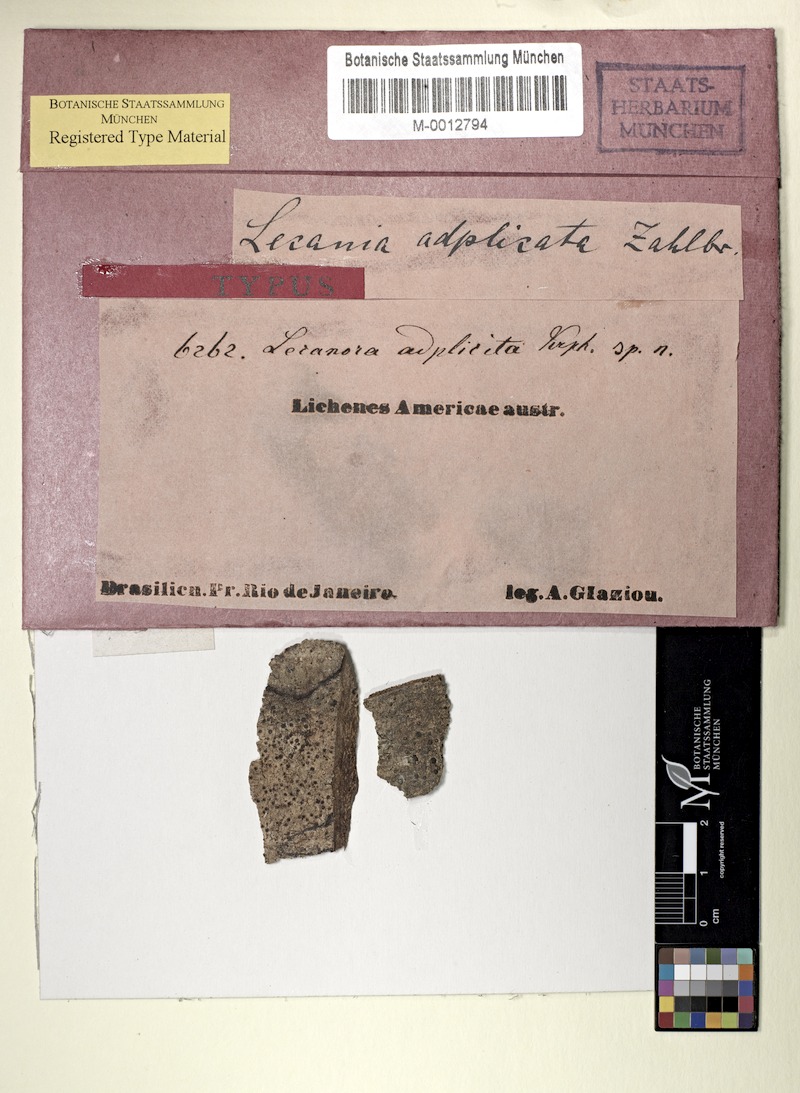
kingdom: Fungi
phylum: Ascomycota
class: Lecanoromycetes
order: Lecanorales
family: Ramalinaceae
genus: Lecania
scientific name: Lecania
